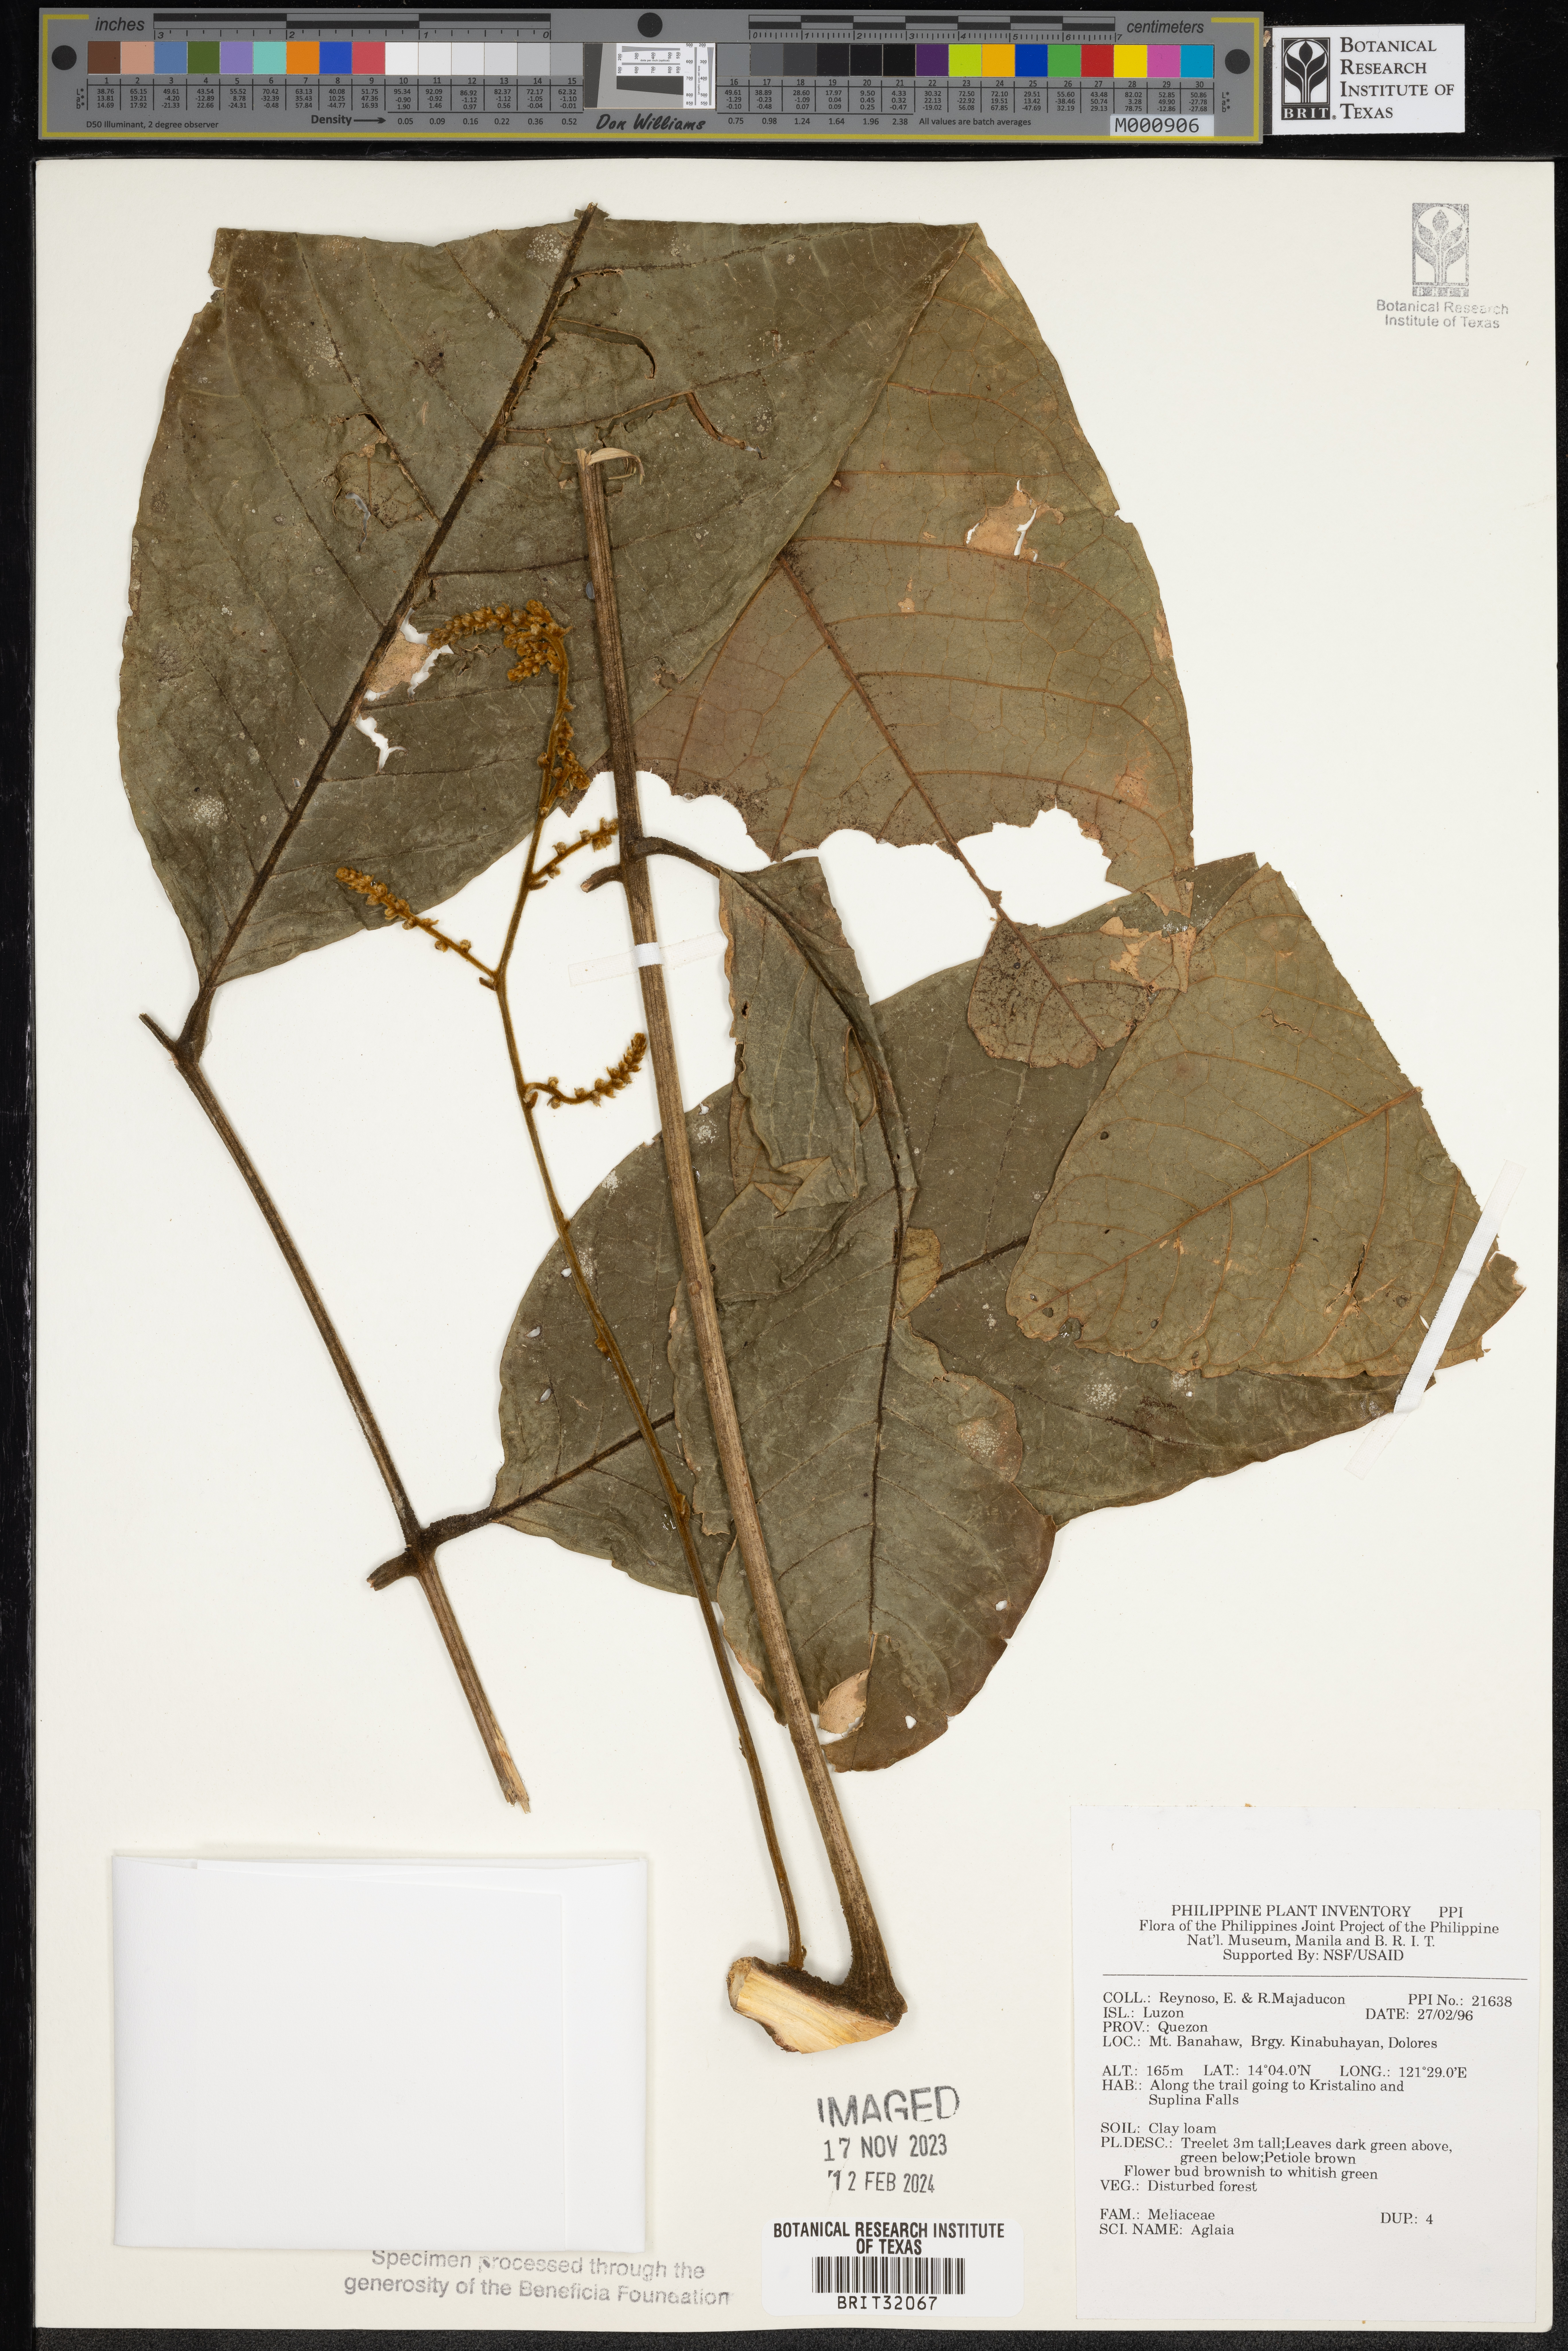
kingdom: Plantae
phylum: Tracheophyta
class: Magnoliopsida
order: Sapindales
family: Meliaceae
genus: Aglaia
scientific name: Aglaia
